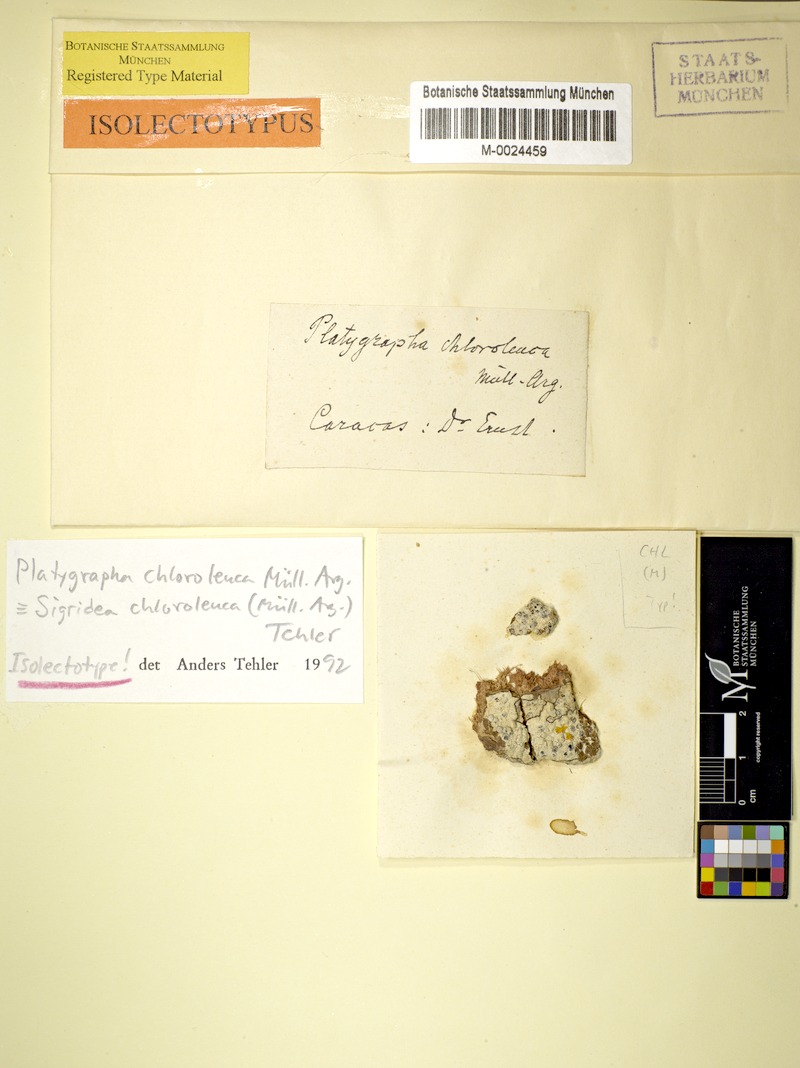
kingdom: Fungi
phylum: Ascomycota
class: Arthoniomycetes
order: Arthoniales
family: Roccellaceae
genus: Sigridea
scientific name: Sigridea chloroleuca
